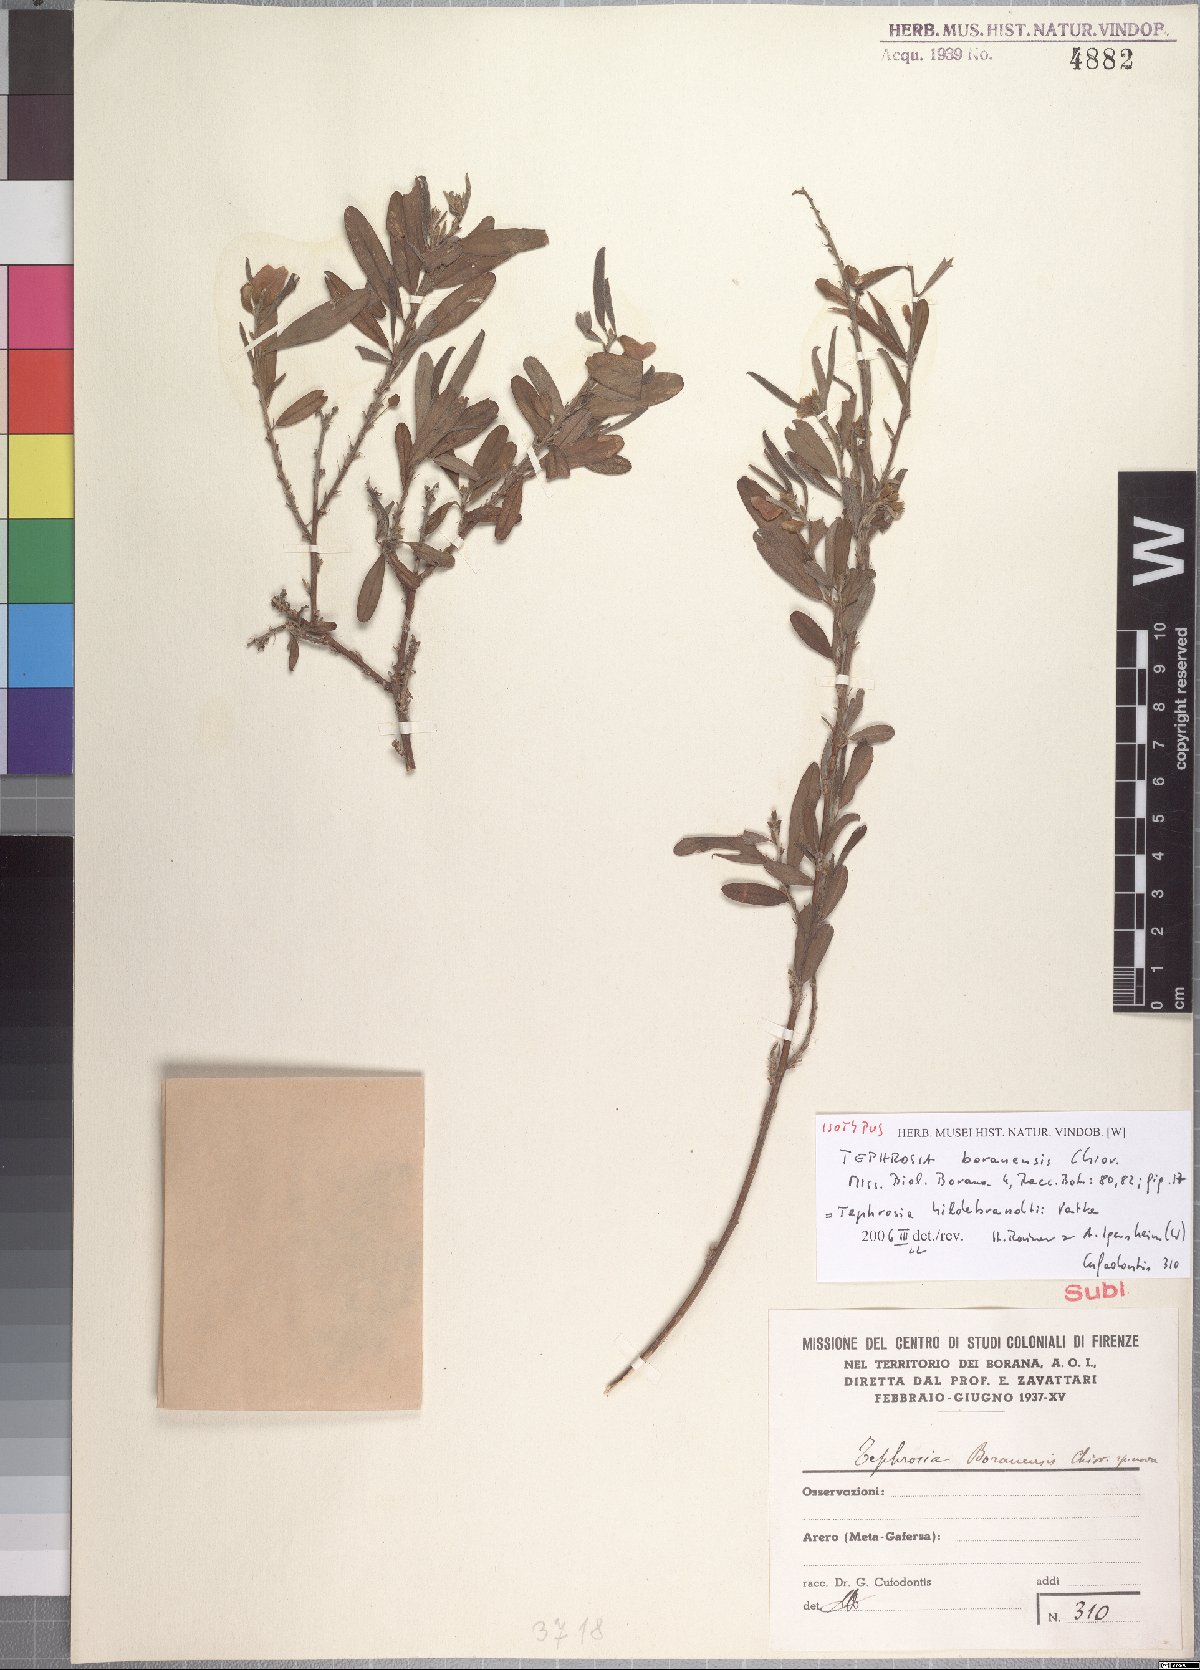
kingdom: Plantae
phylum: Tracheophyta
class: Magnoliopsida
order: Fabales
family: Fabaceae
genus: Tephrosia
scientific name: Tephrosia hildebrandtii
